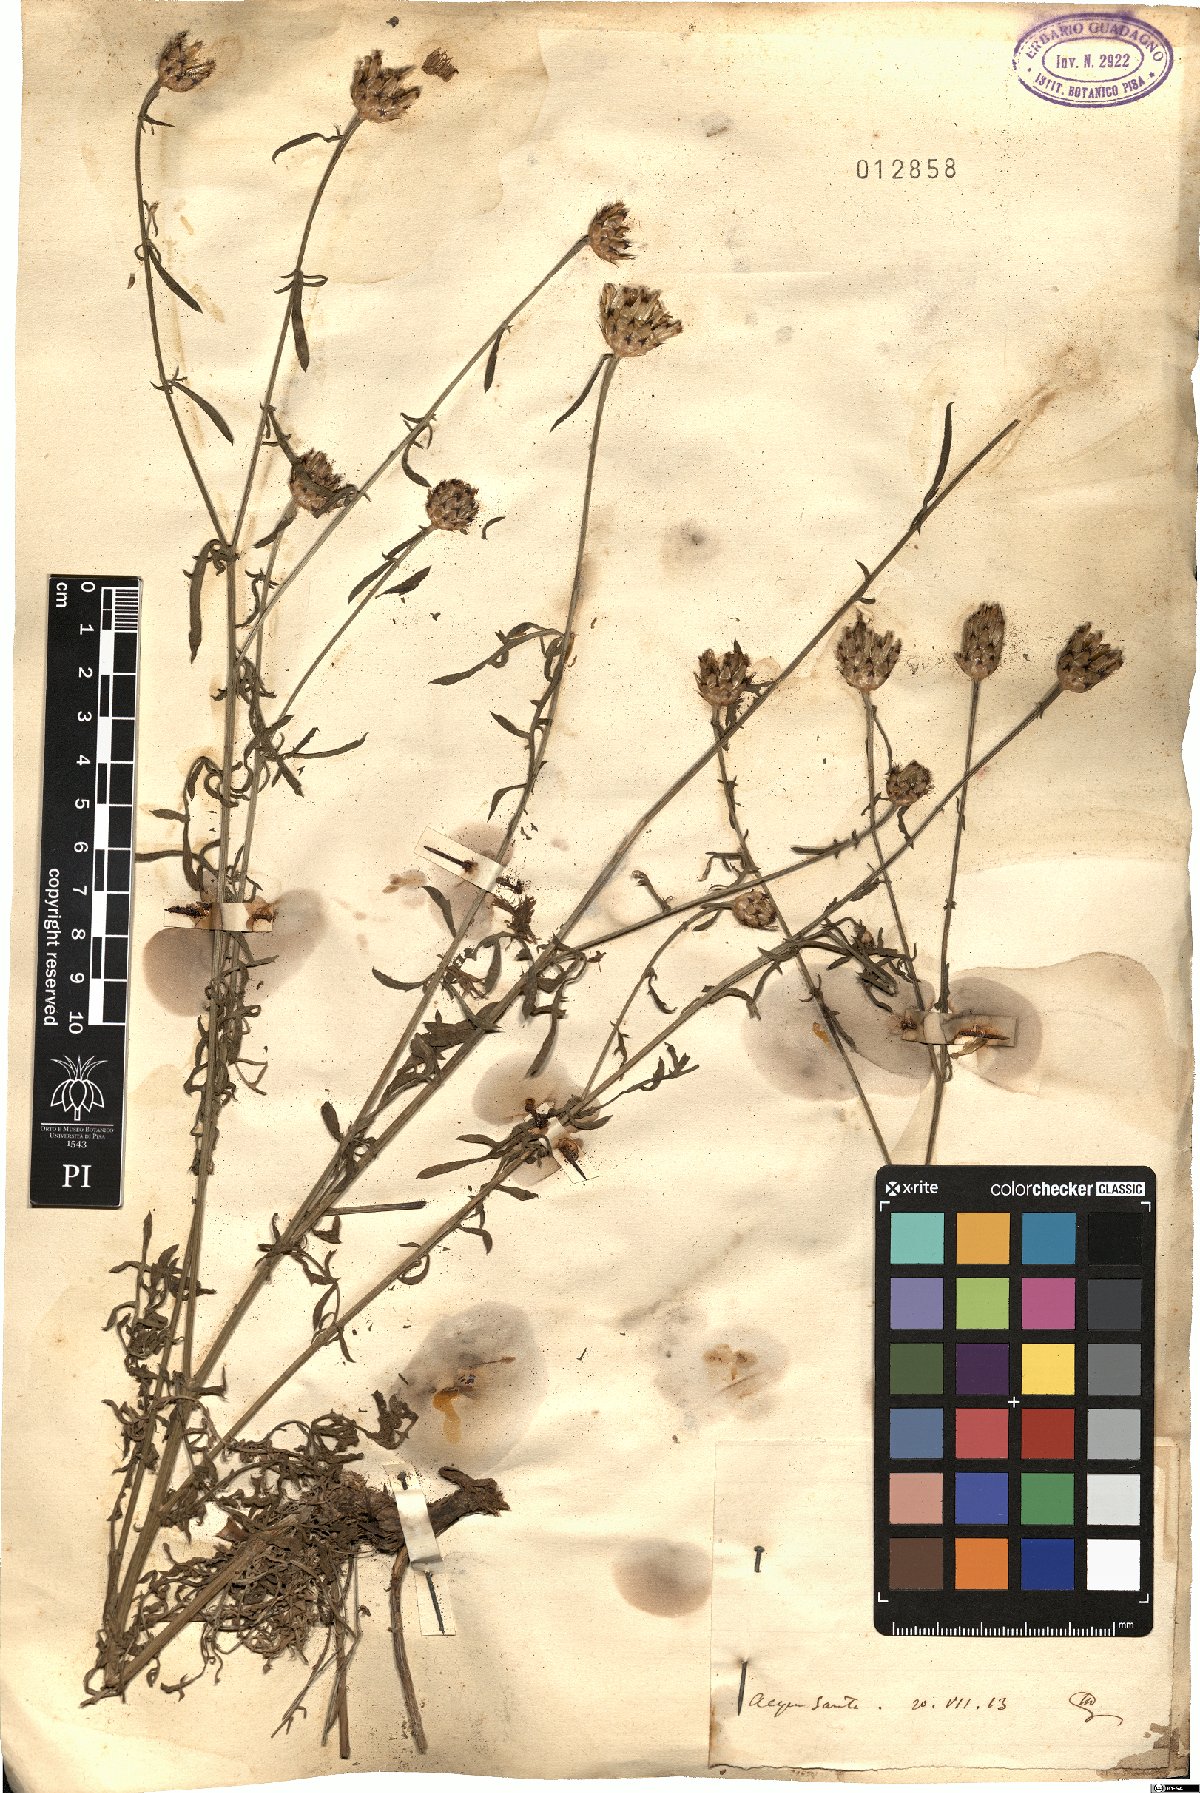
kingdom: Plantae
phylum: Tracheophyta
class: Magnoliopsida
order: Asterales
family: Asteraceae
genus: Centaurea
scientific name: Centaurea
